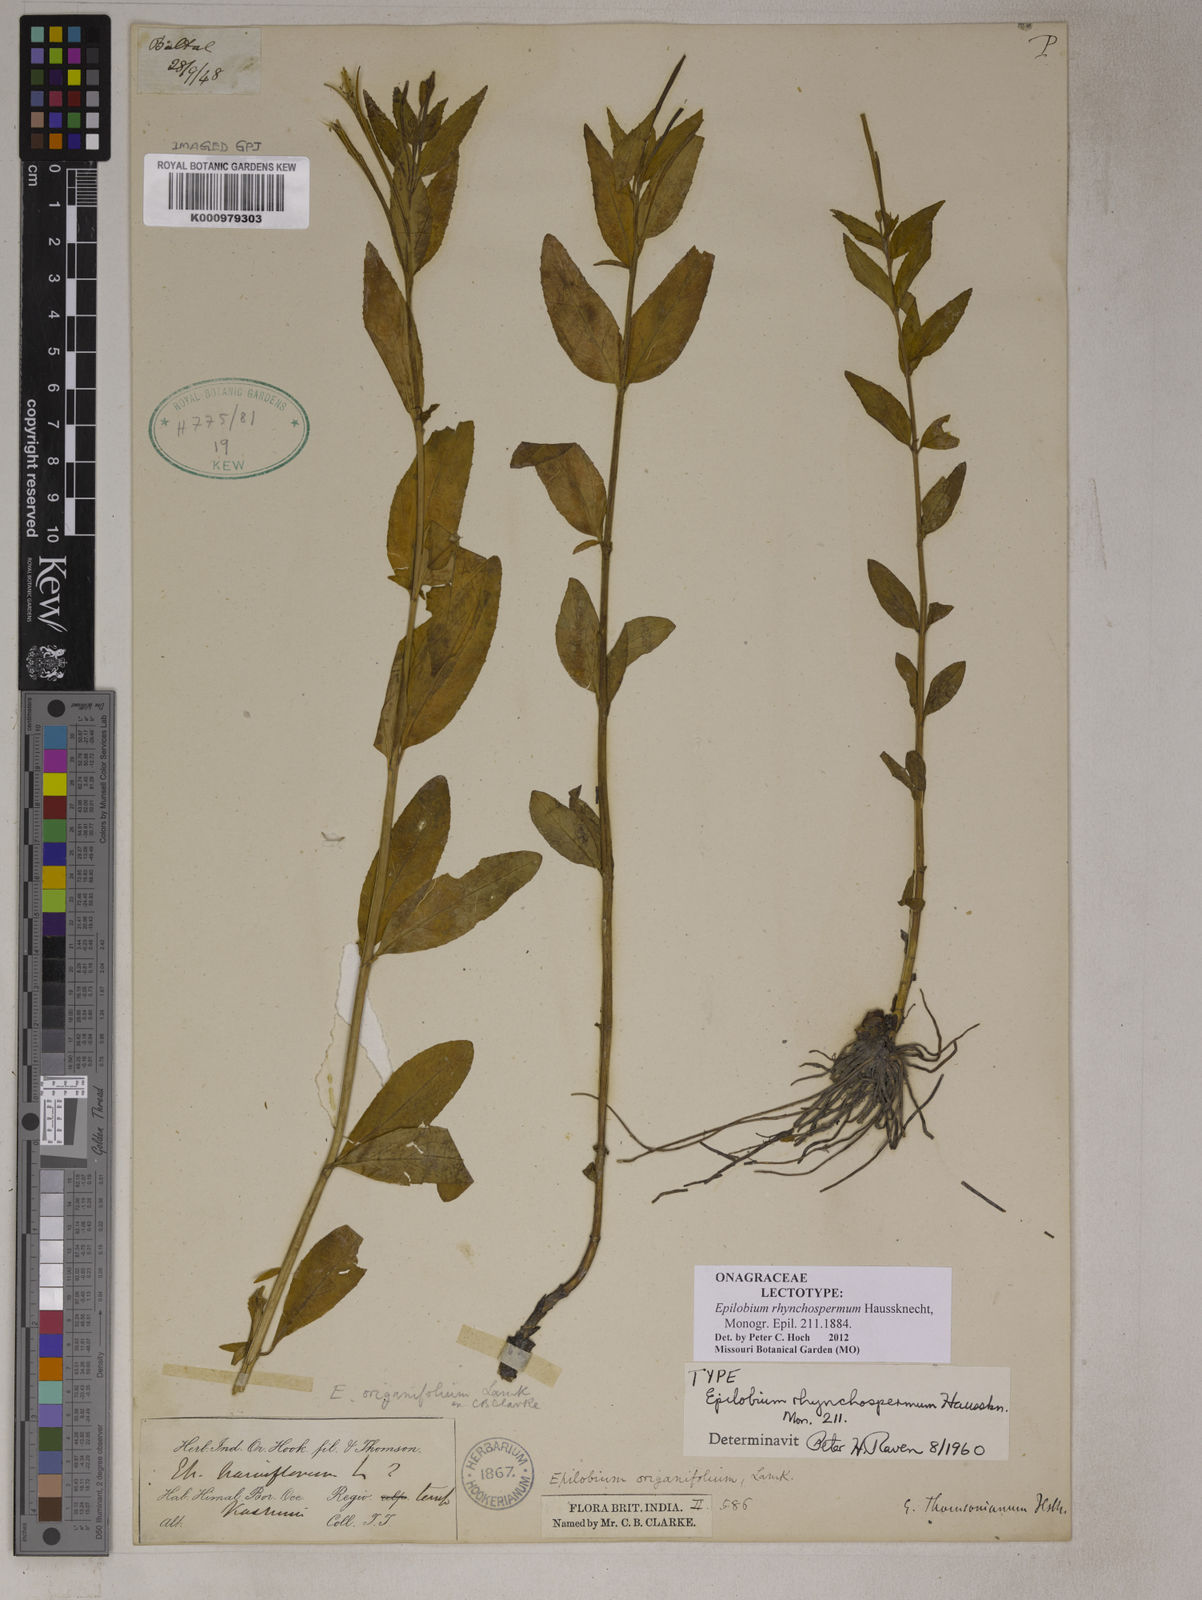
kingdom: Plantae
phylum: Tracheophyta
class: Magnoliopsida
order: Myrtales
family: Onagraceae
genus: Epilobium
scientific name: Epilobium rhynchospermum
